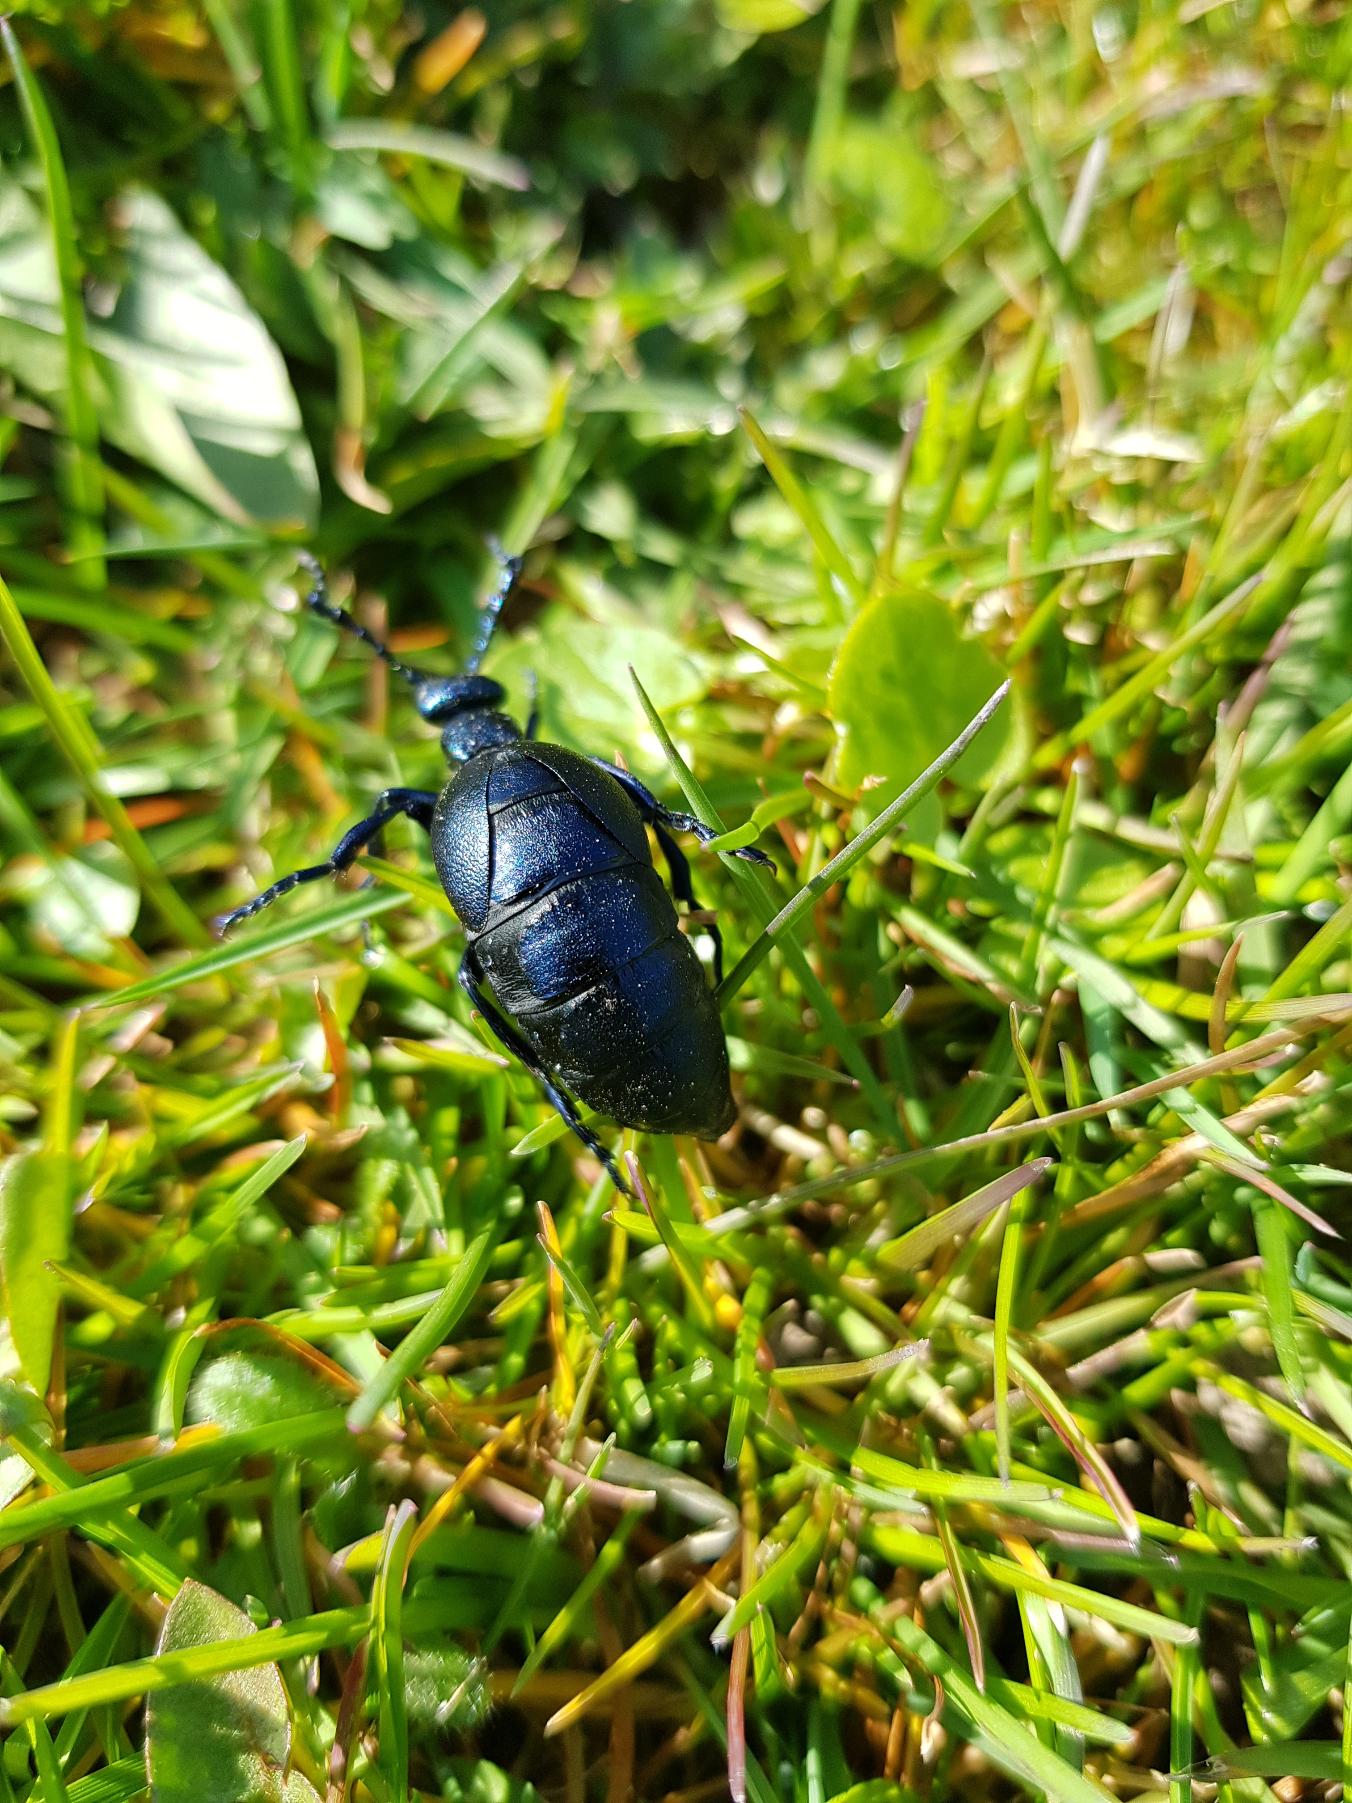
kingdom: Animalia
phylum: Arthropoda
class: Insecta
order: Coleoptera
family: Meloidae
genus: Meloe
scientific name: Meloe violaceus
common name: Blå oliebille
